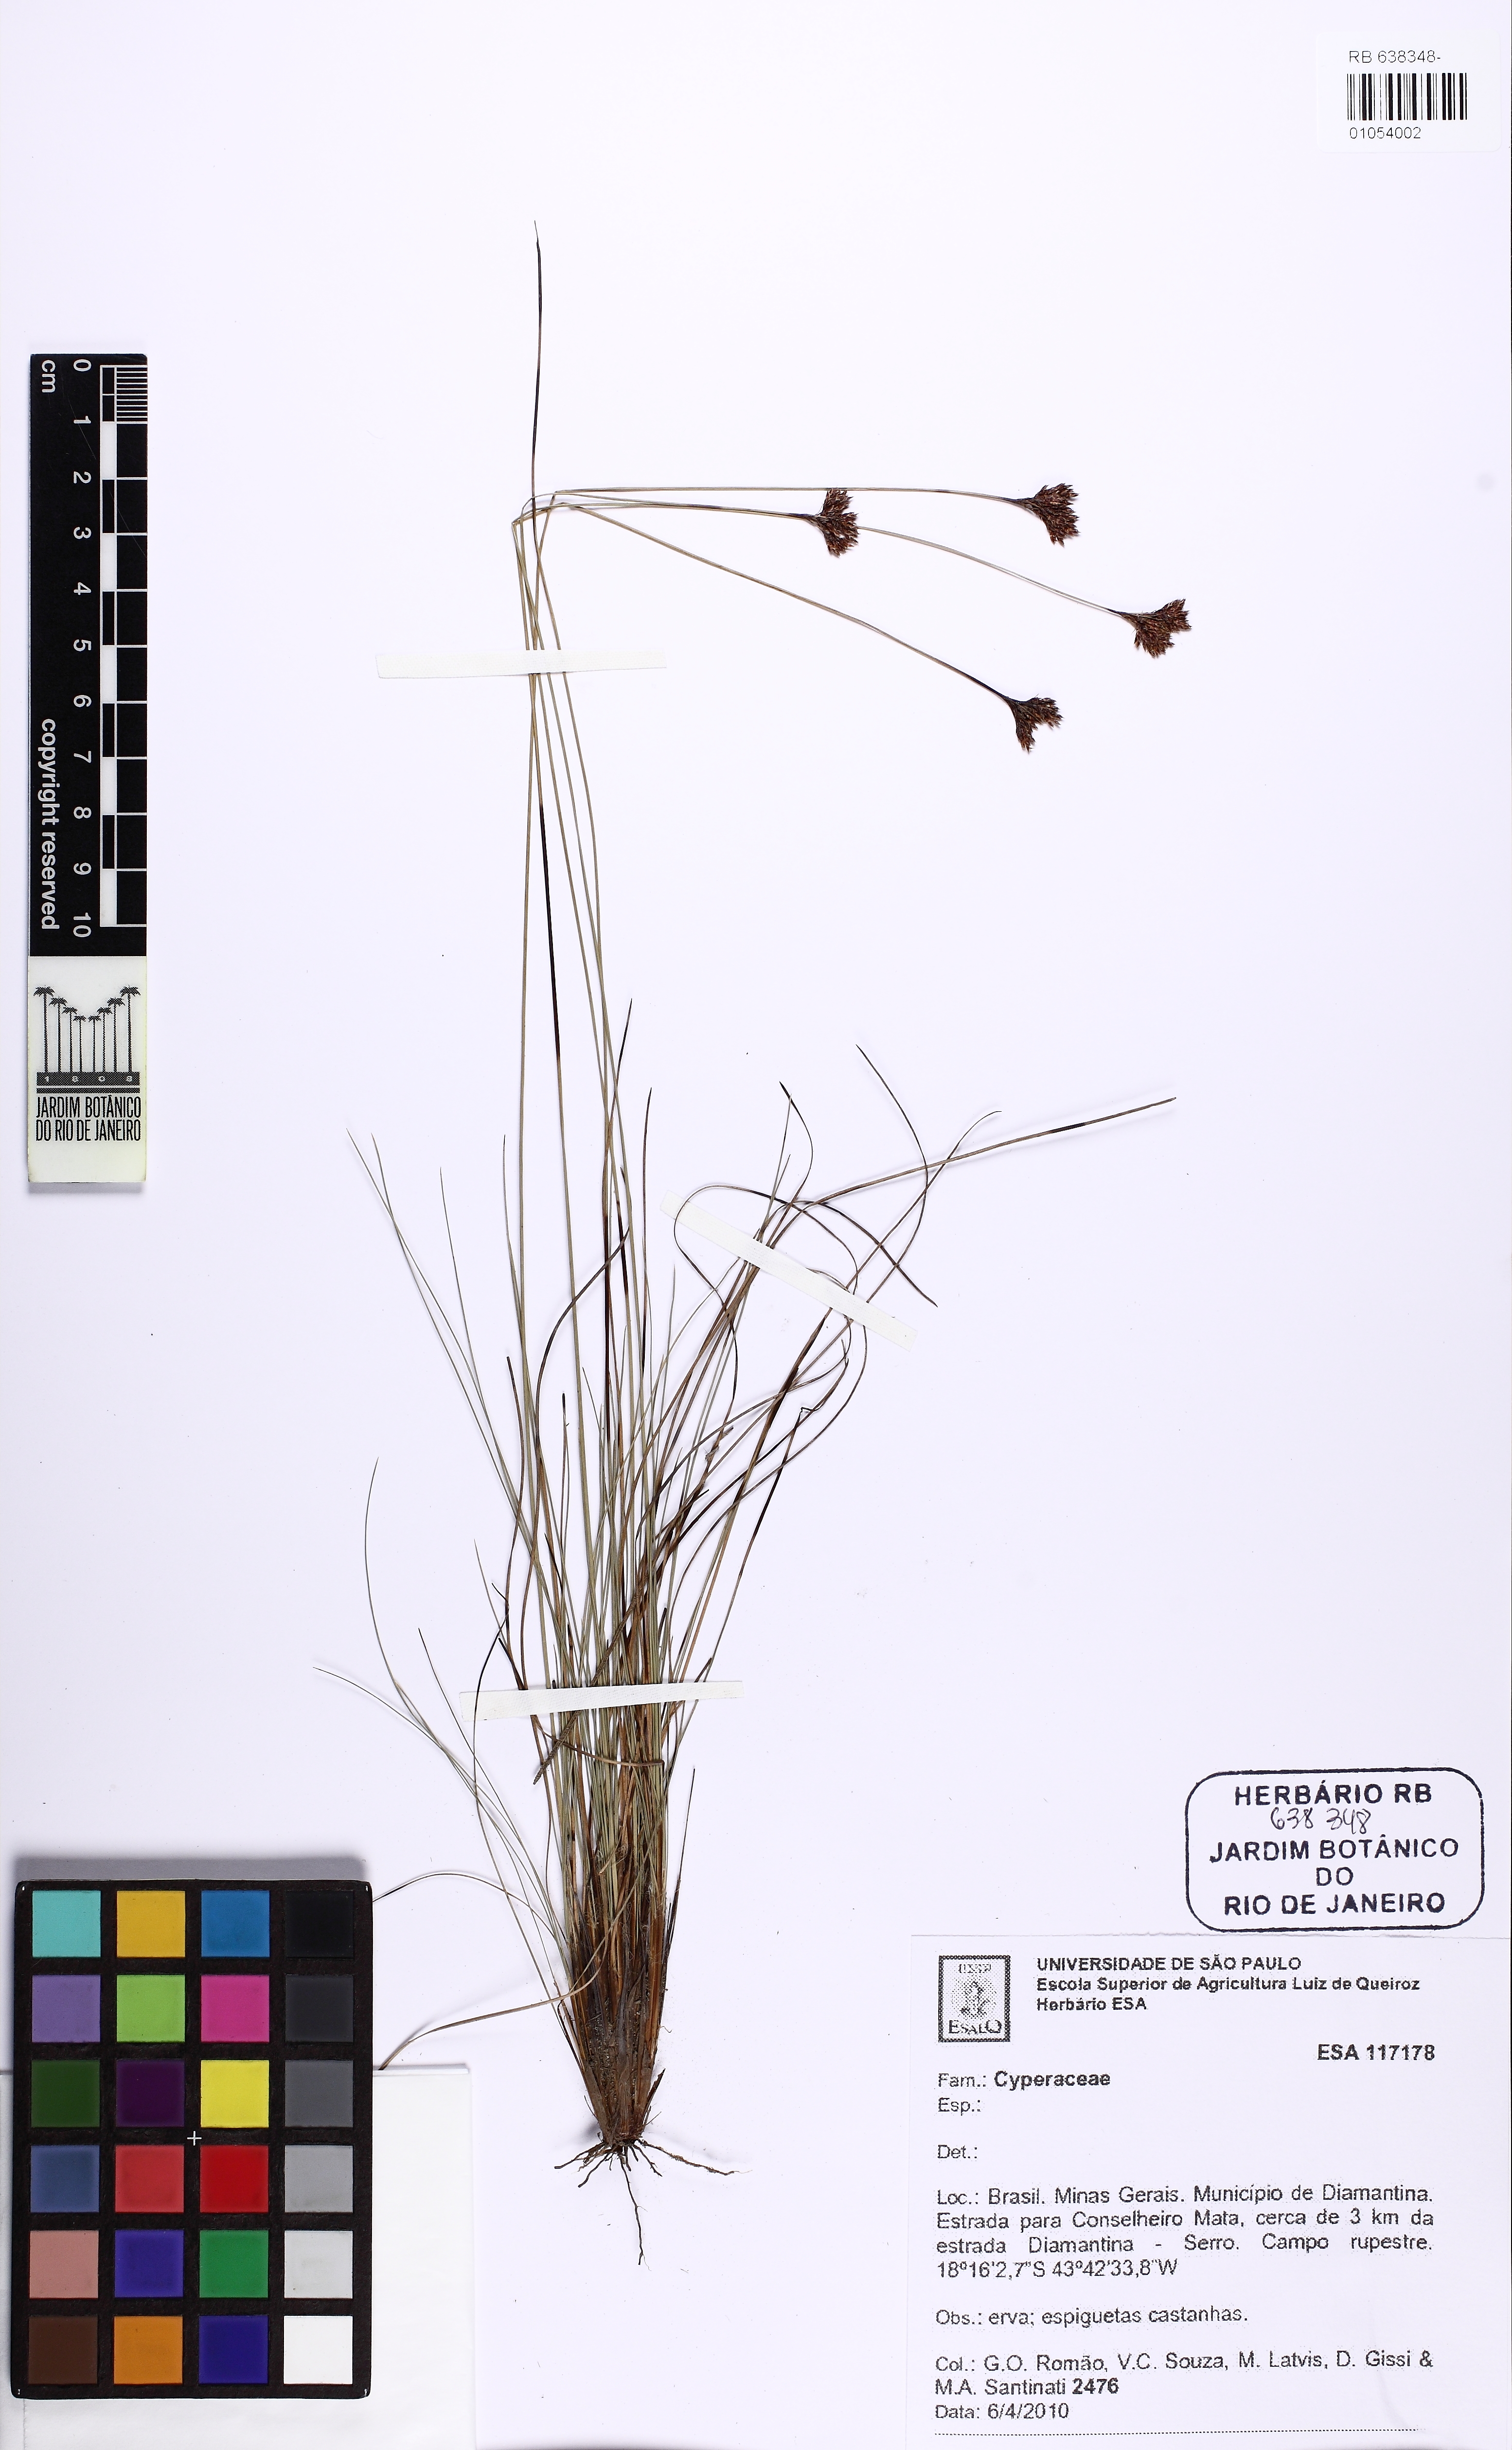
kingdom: Plantae
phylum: Tracheophyta
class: Liliopsida
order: Poales
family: Cyperaceae
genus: Bulbostylis
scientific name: Bulbostylis junciformis
